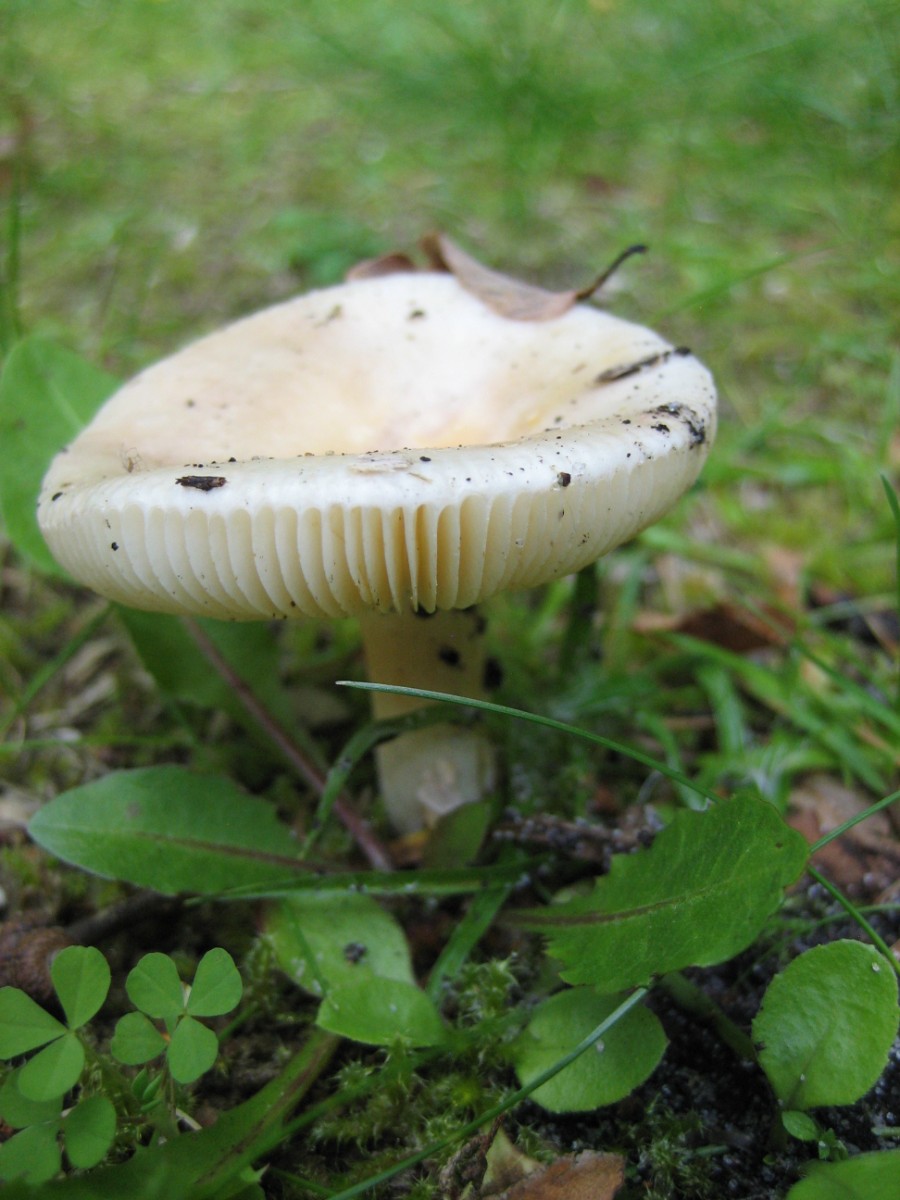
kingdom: Fungi
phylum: Basidiomycota
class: Agaricomycetes
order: Russulales
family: Russulaceae
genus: Russula
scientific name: Russula
